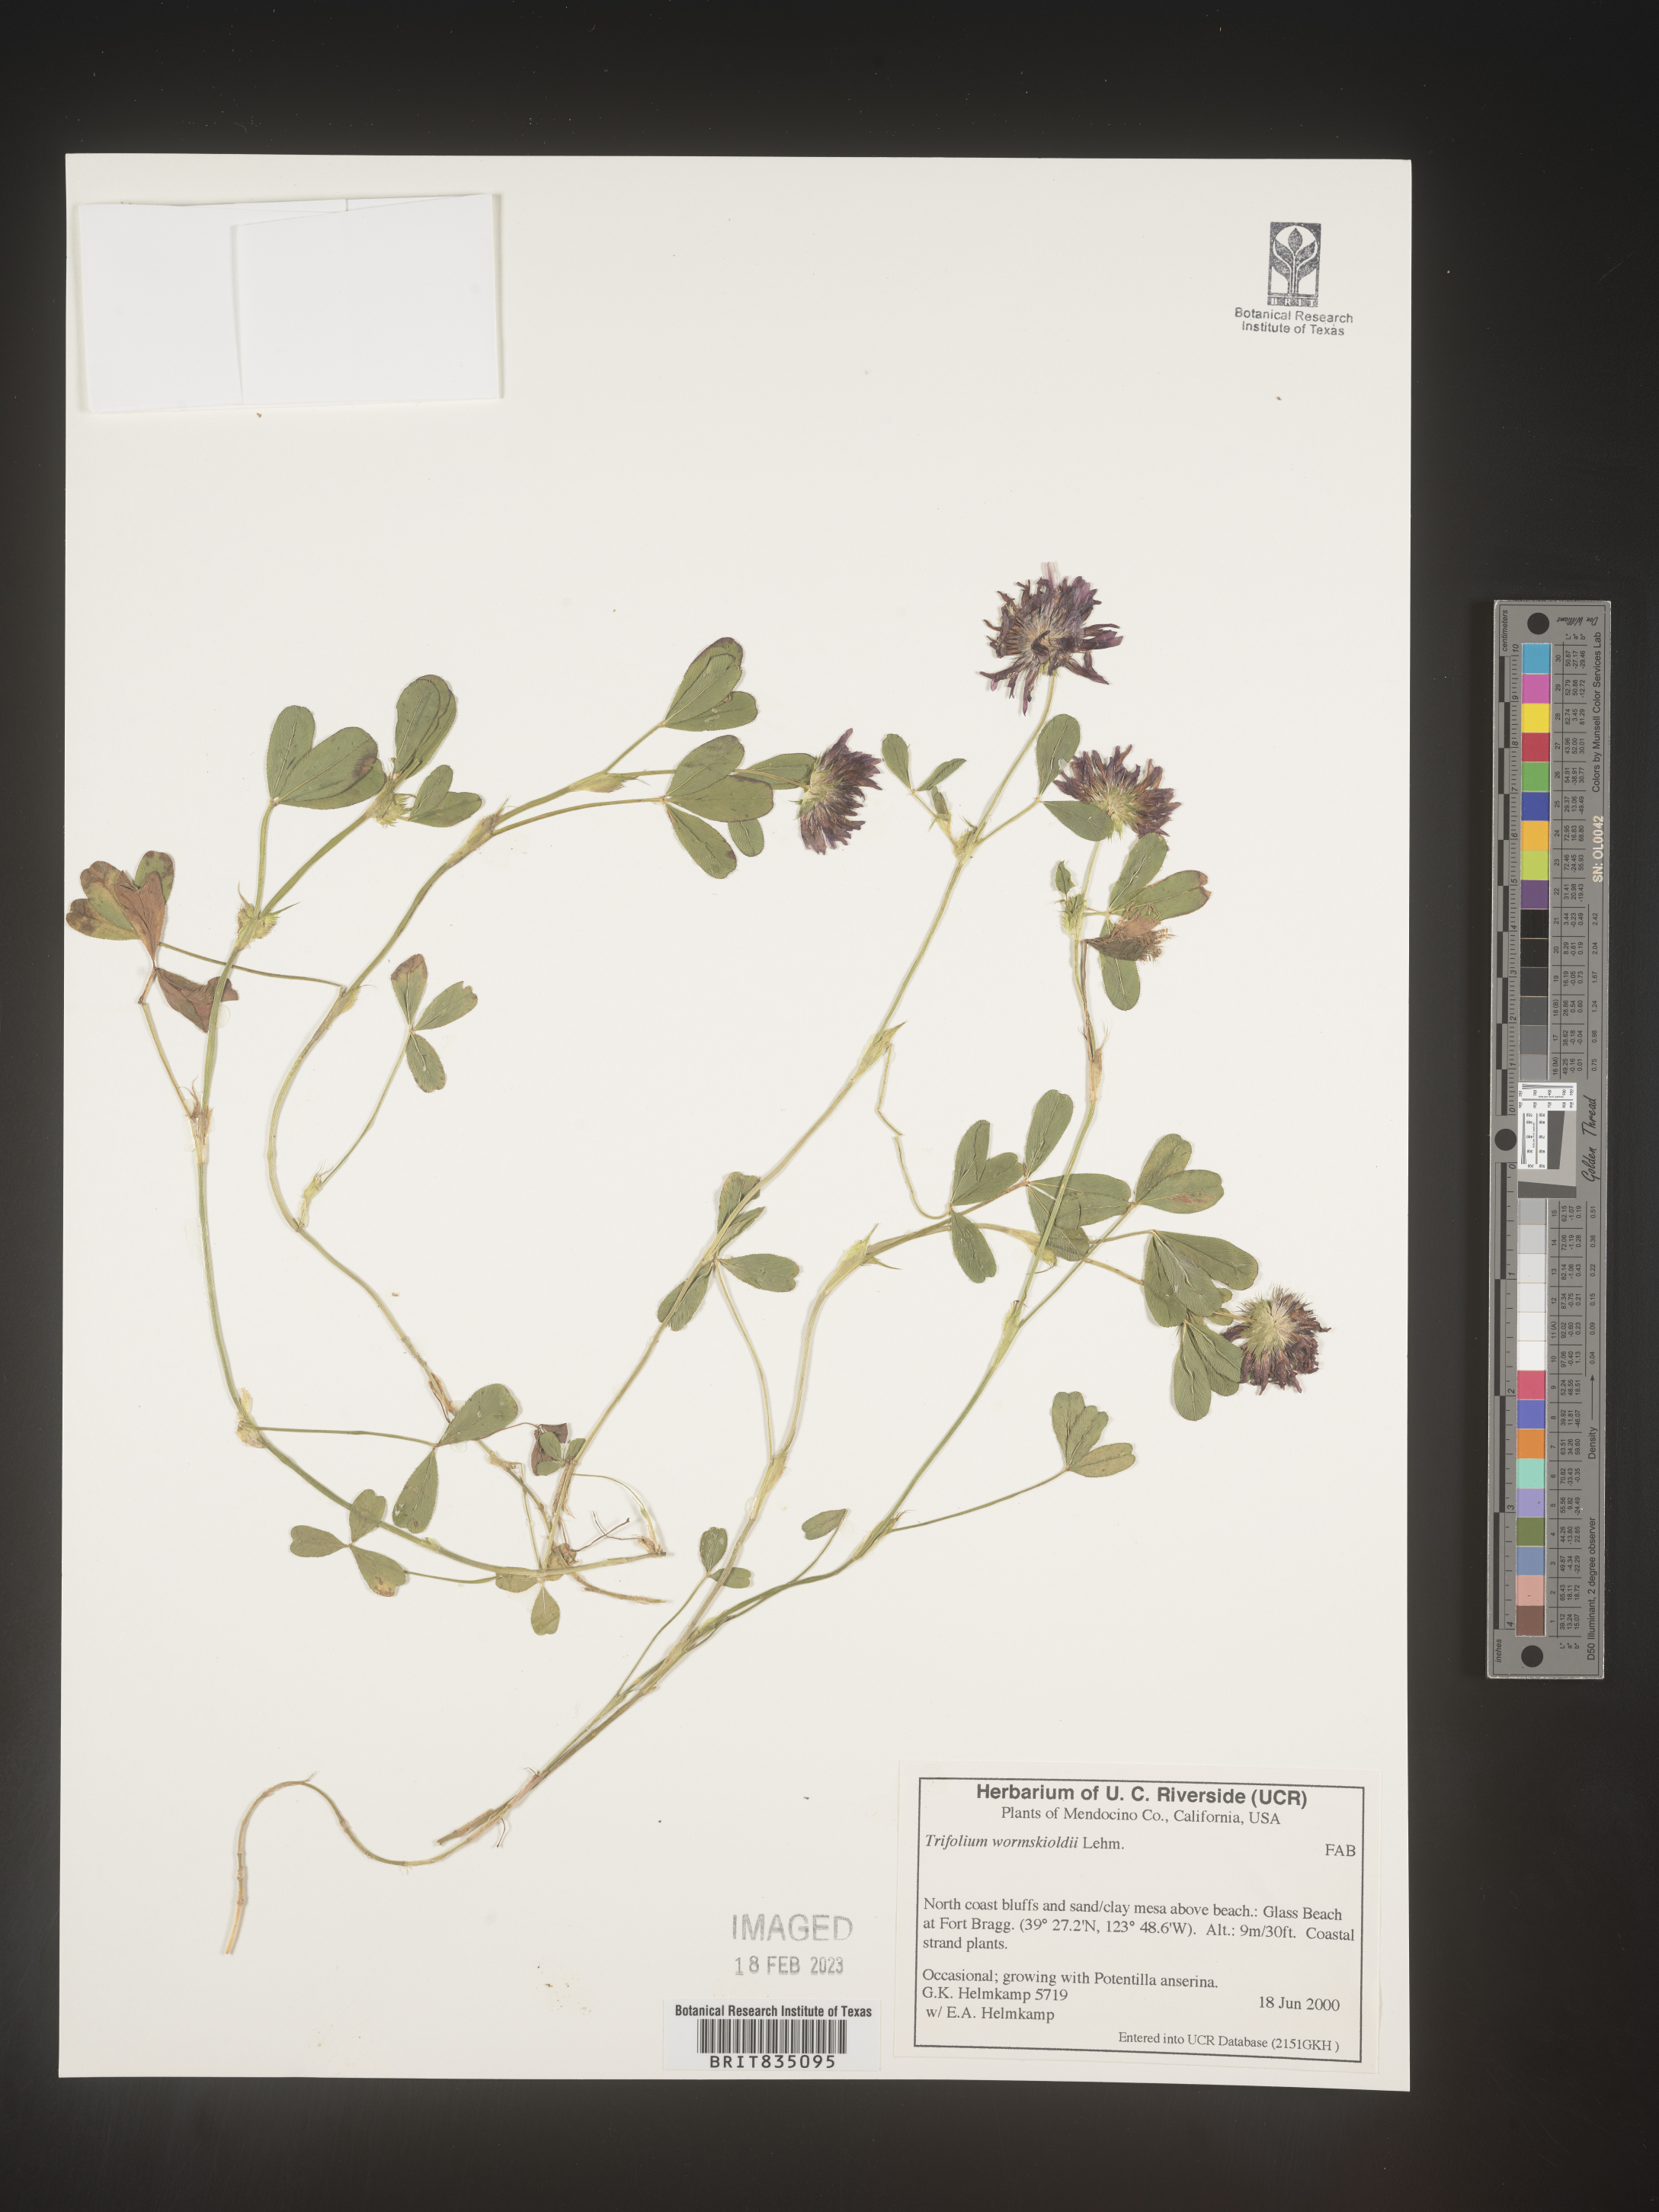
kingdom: Plantae
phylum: Tracheophyta
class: Magnoliopsida
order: Fabales
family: Fabaceae
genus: Trifolium
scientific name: Trifolium wormskioldii
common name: Springbank clover
